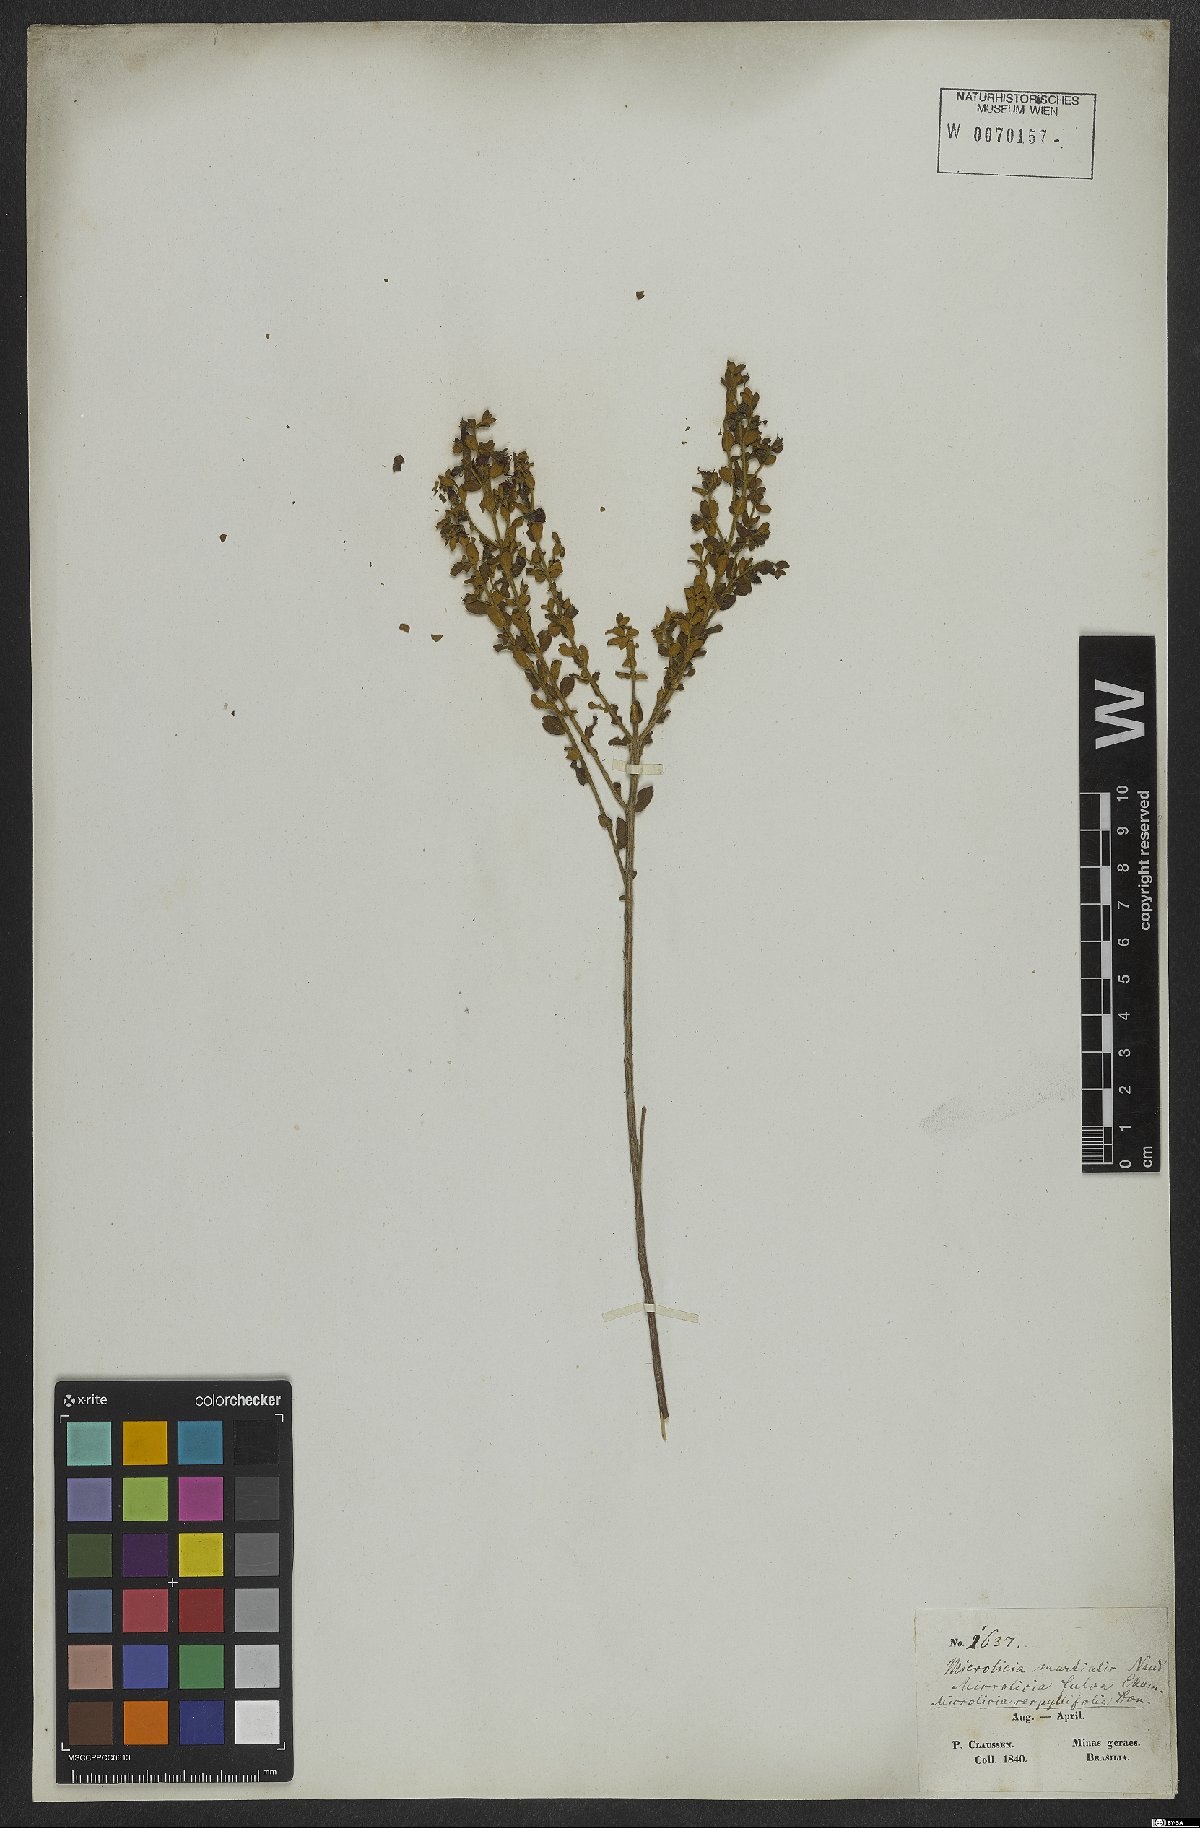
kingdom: Plantae
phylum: Tracheophyta
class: Magnoliopsida
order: Myrtales
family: Melastomataceae
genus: Microlicia
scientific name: Microlicia fulva
